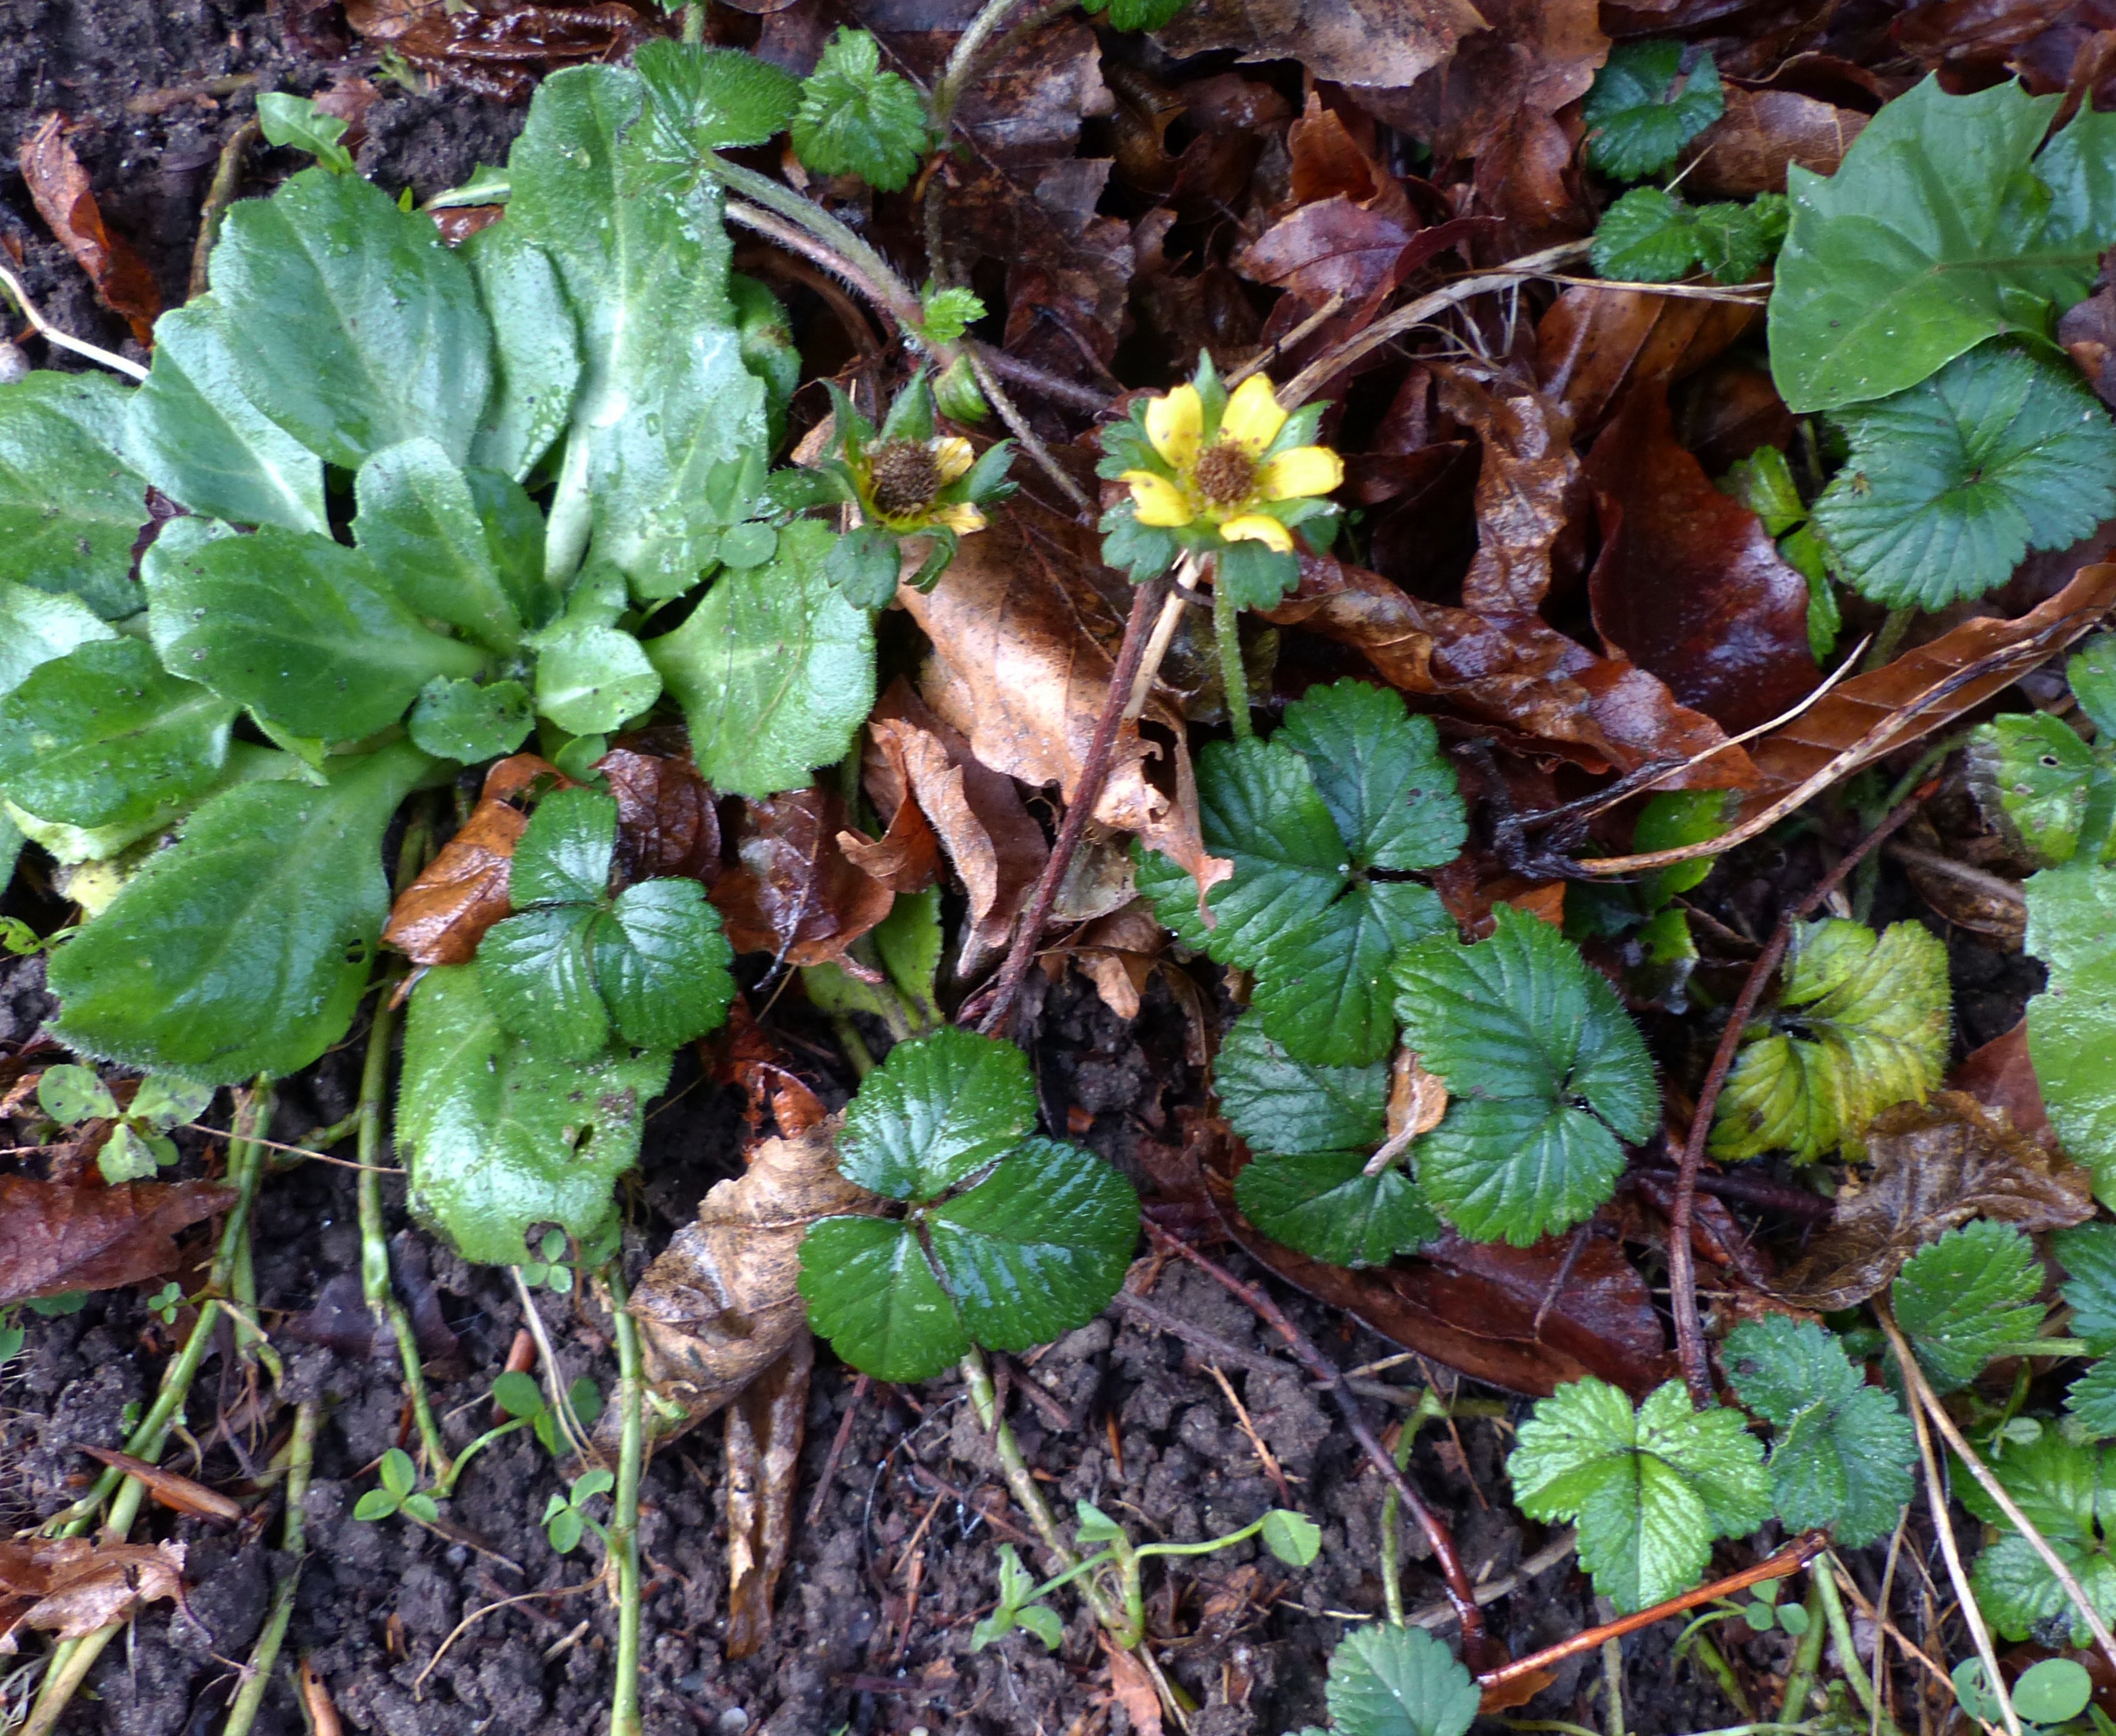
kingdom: Plantae
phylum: Tracheophyta
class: Magnoliopsida
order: Rosales
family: Rosaceae
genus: Potentilla
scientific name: Potentilla indica
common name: Indisk jordbær
